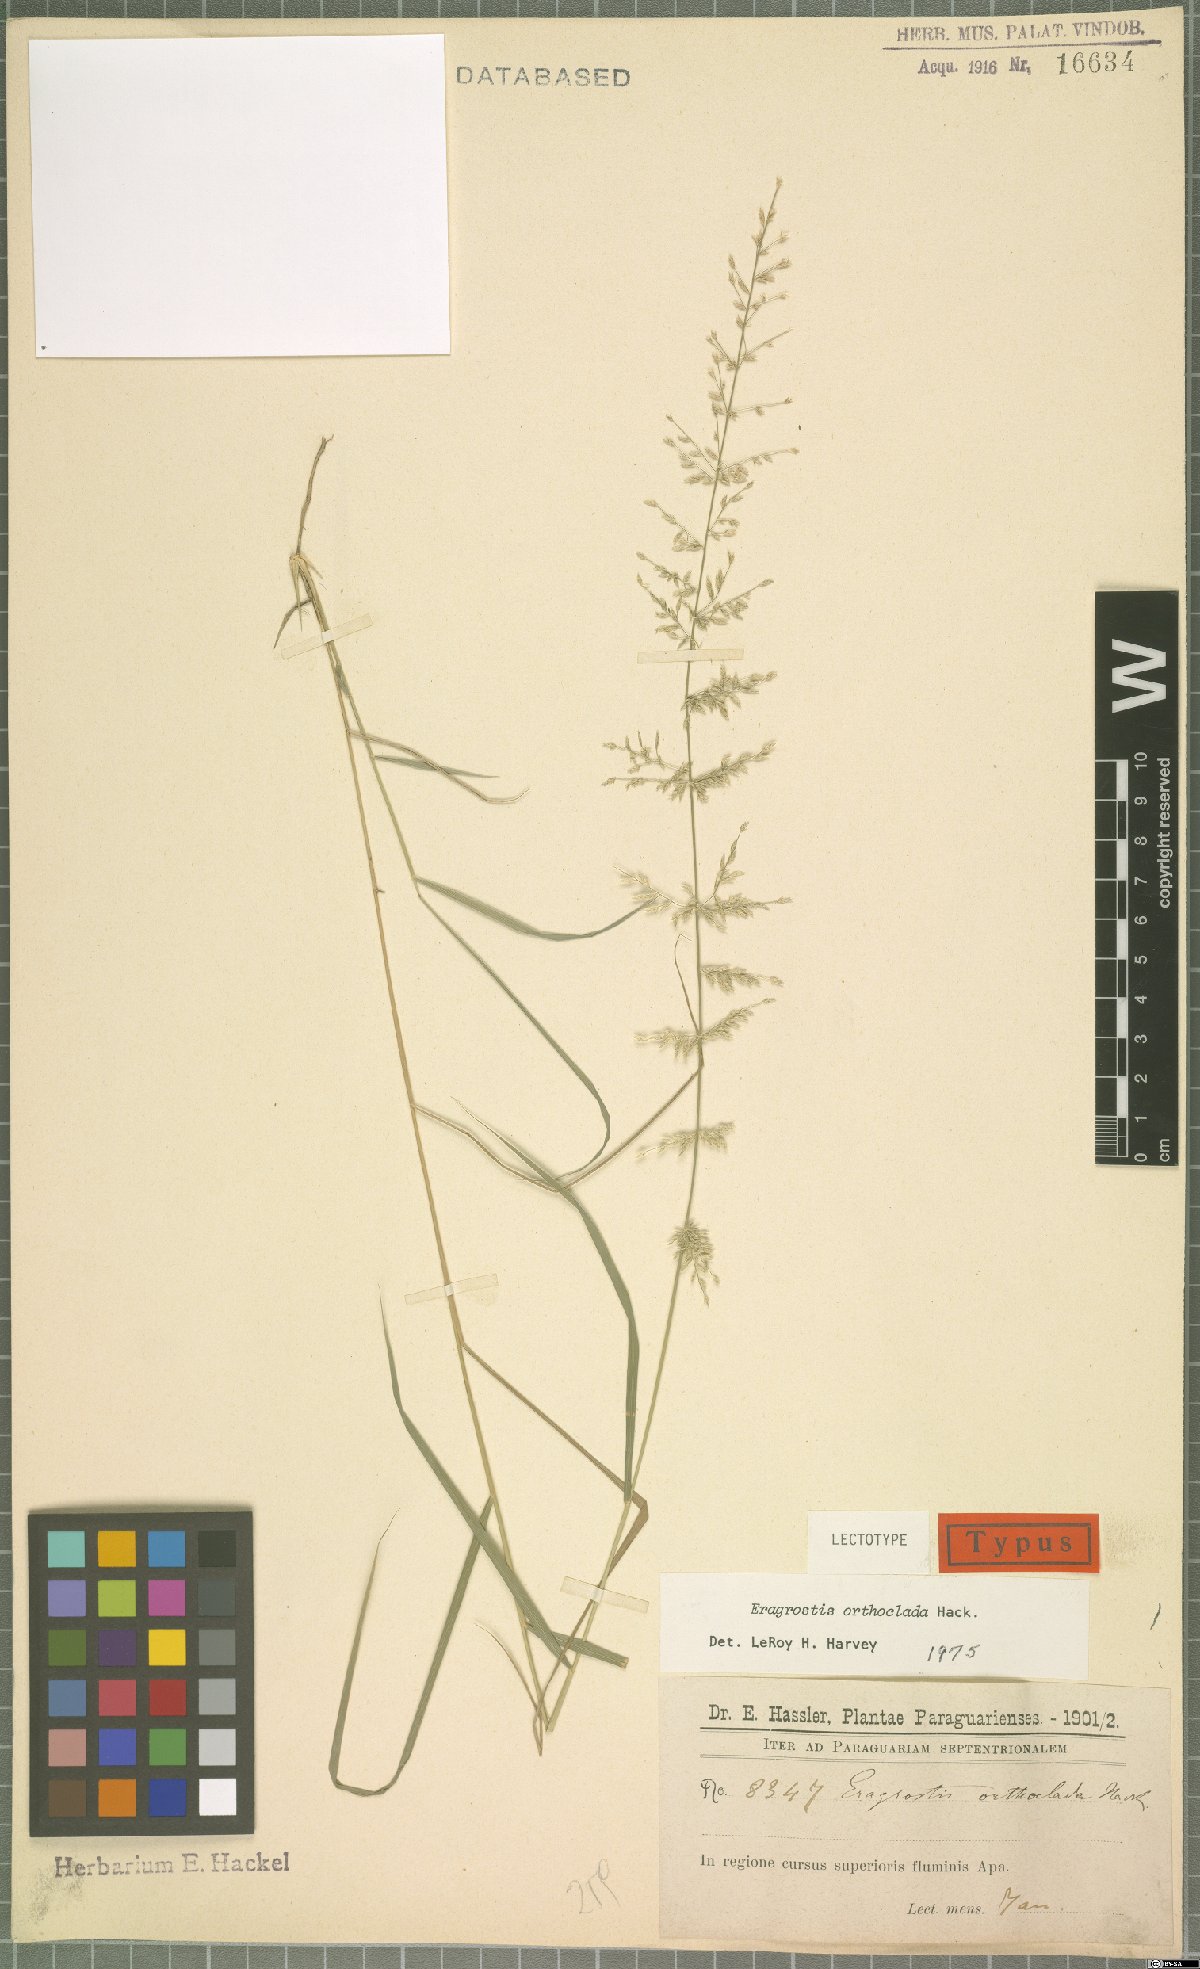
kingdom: Plantae
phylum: Tracheophyta
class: Liliopsida
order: Poales
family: Poaceae
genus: Eragrostis
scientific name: Eragrostis orthoclada
